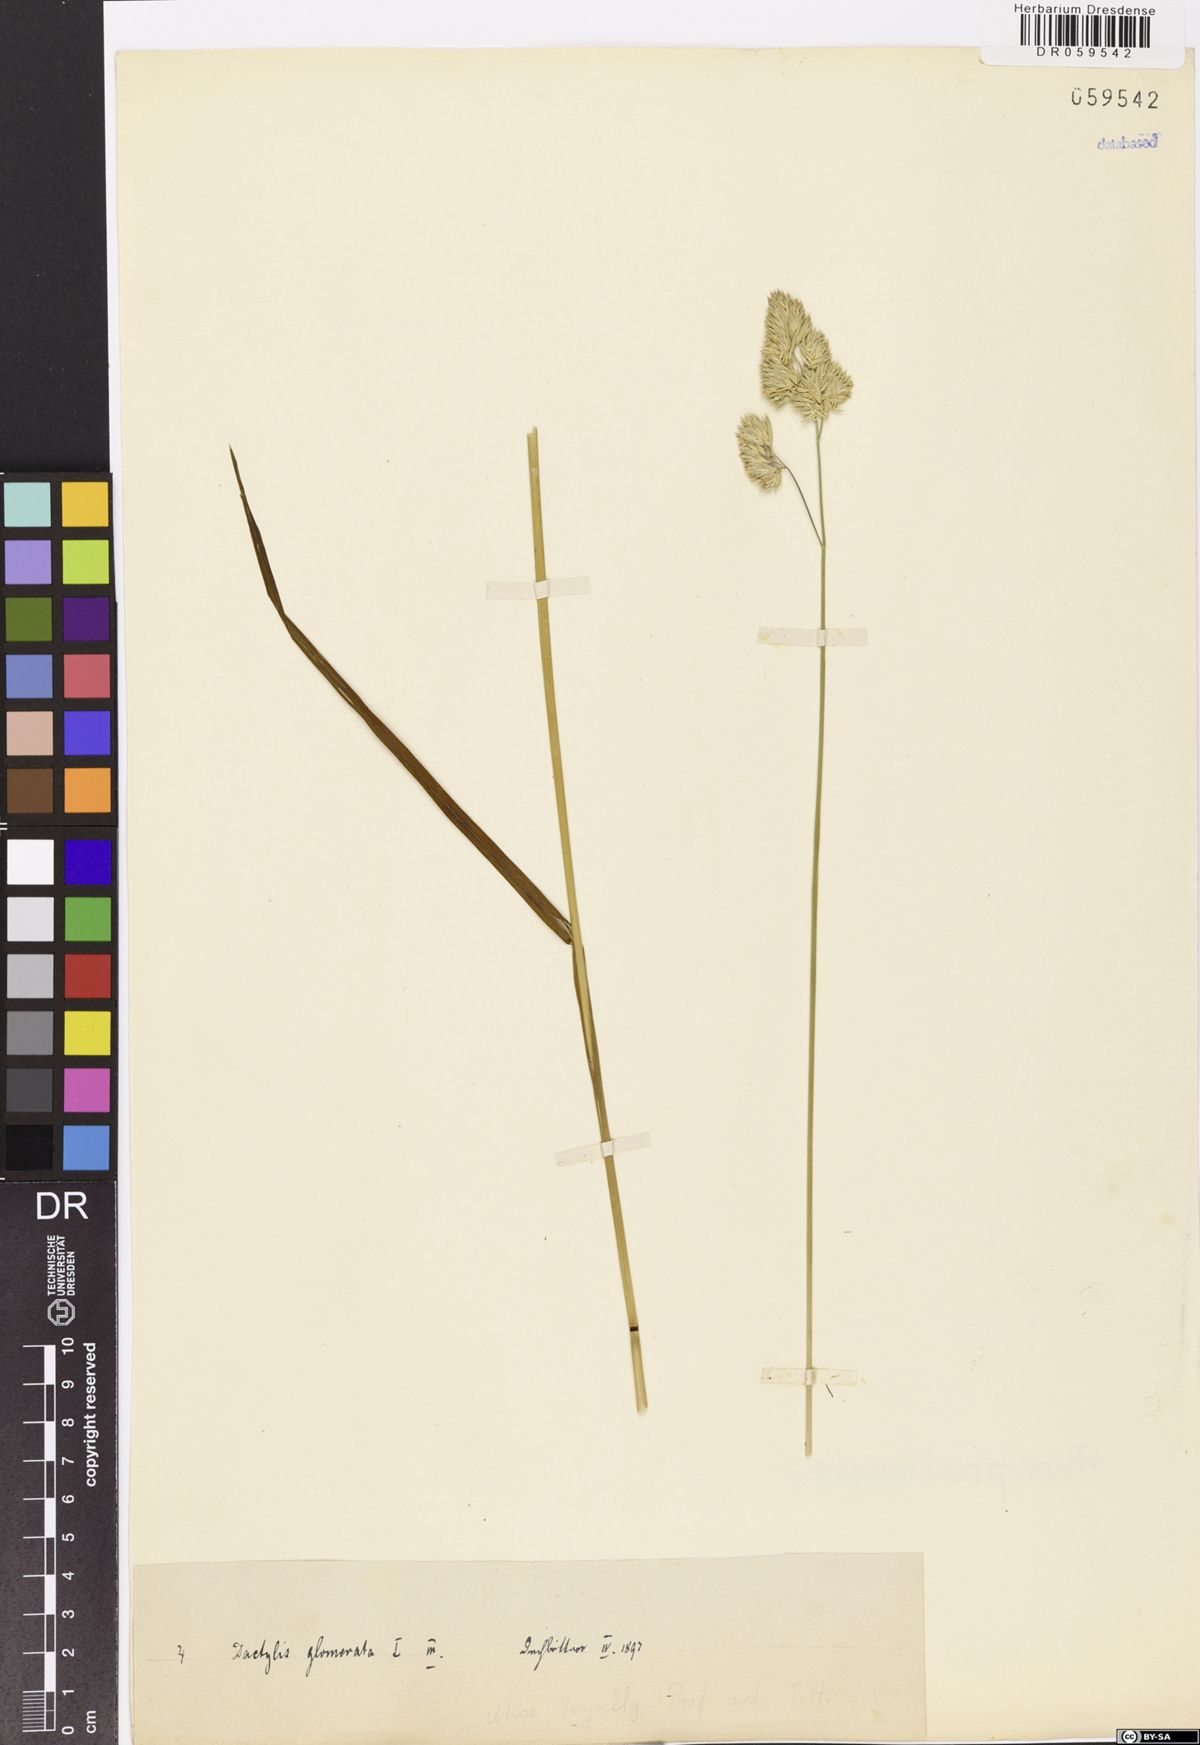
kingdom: Plantae
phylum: Tracheophyta
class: Liliopsida
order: Poales
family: Poaceae
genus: Dactylis
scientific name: Dactylis glomerata
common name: Orchardgrass
